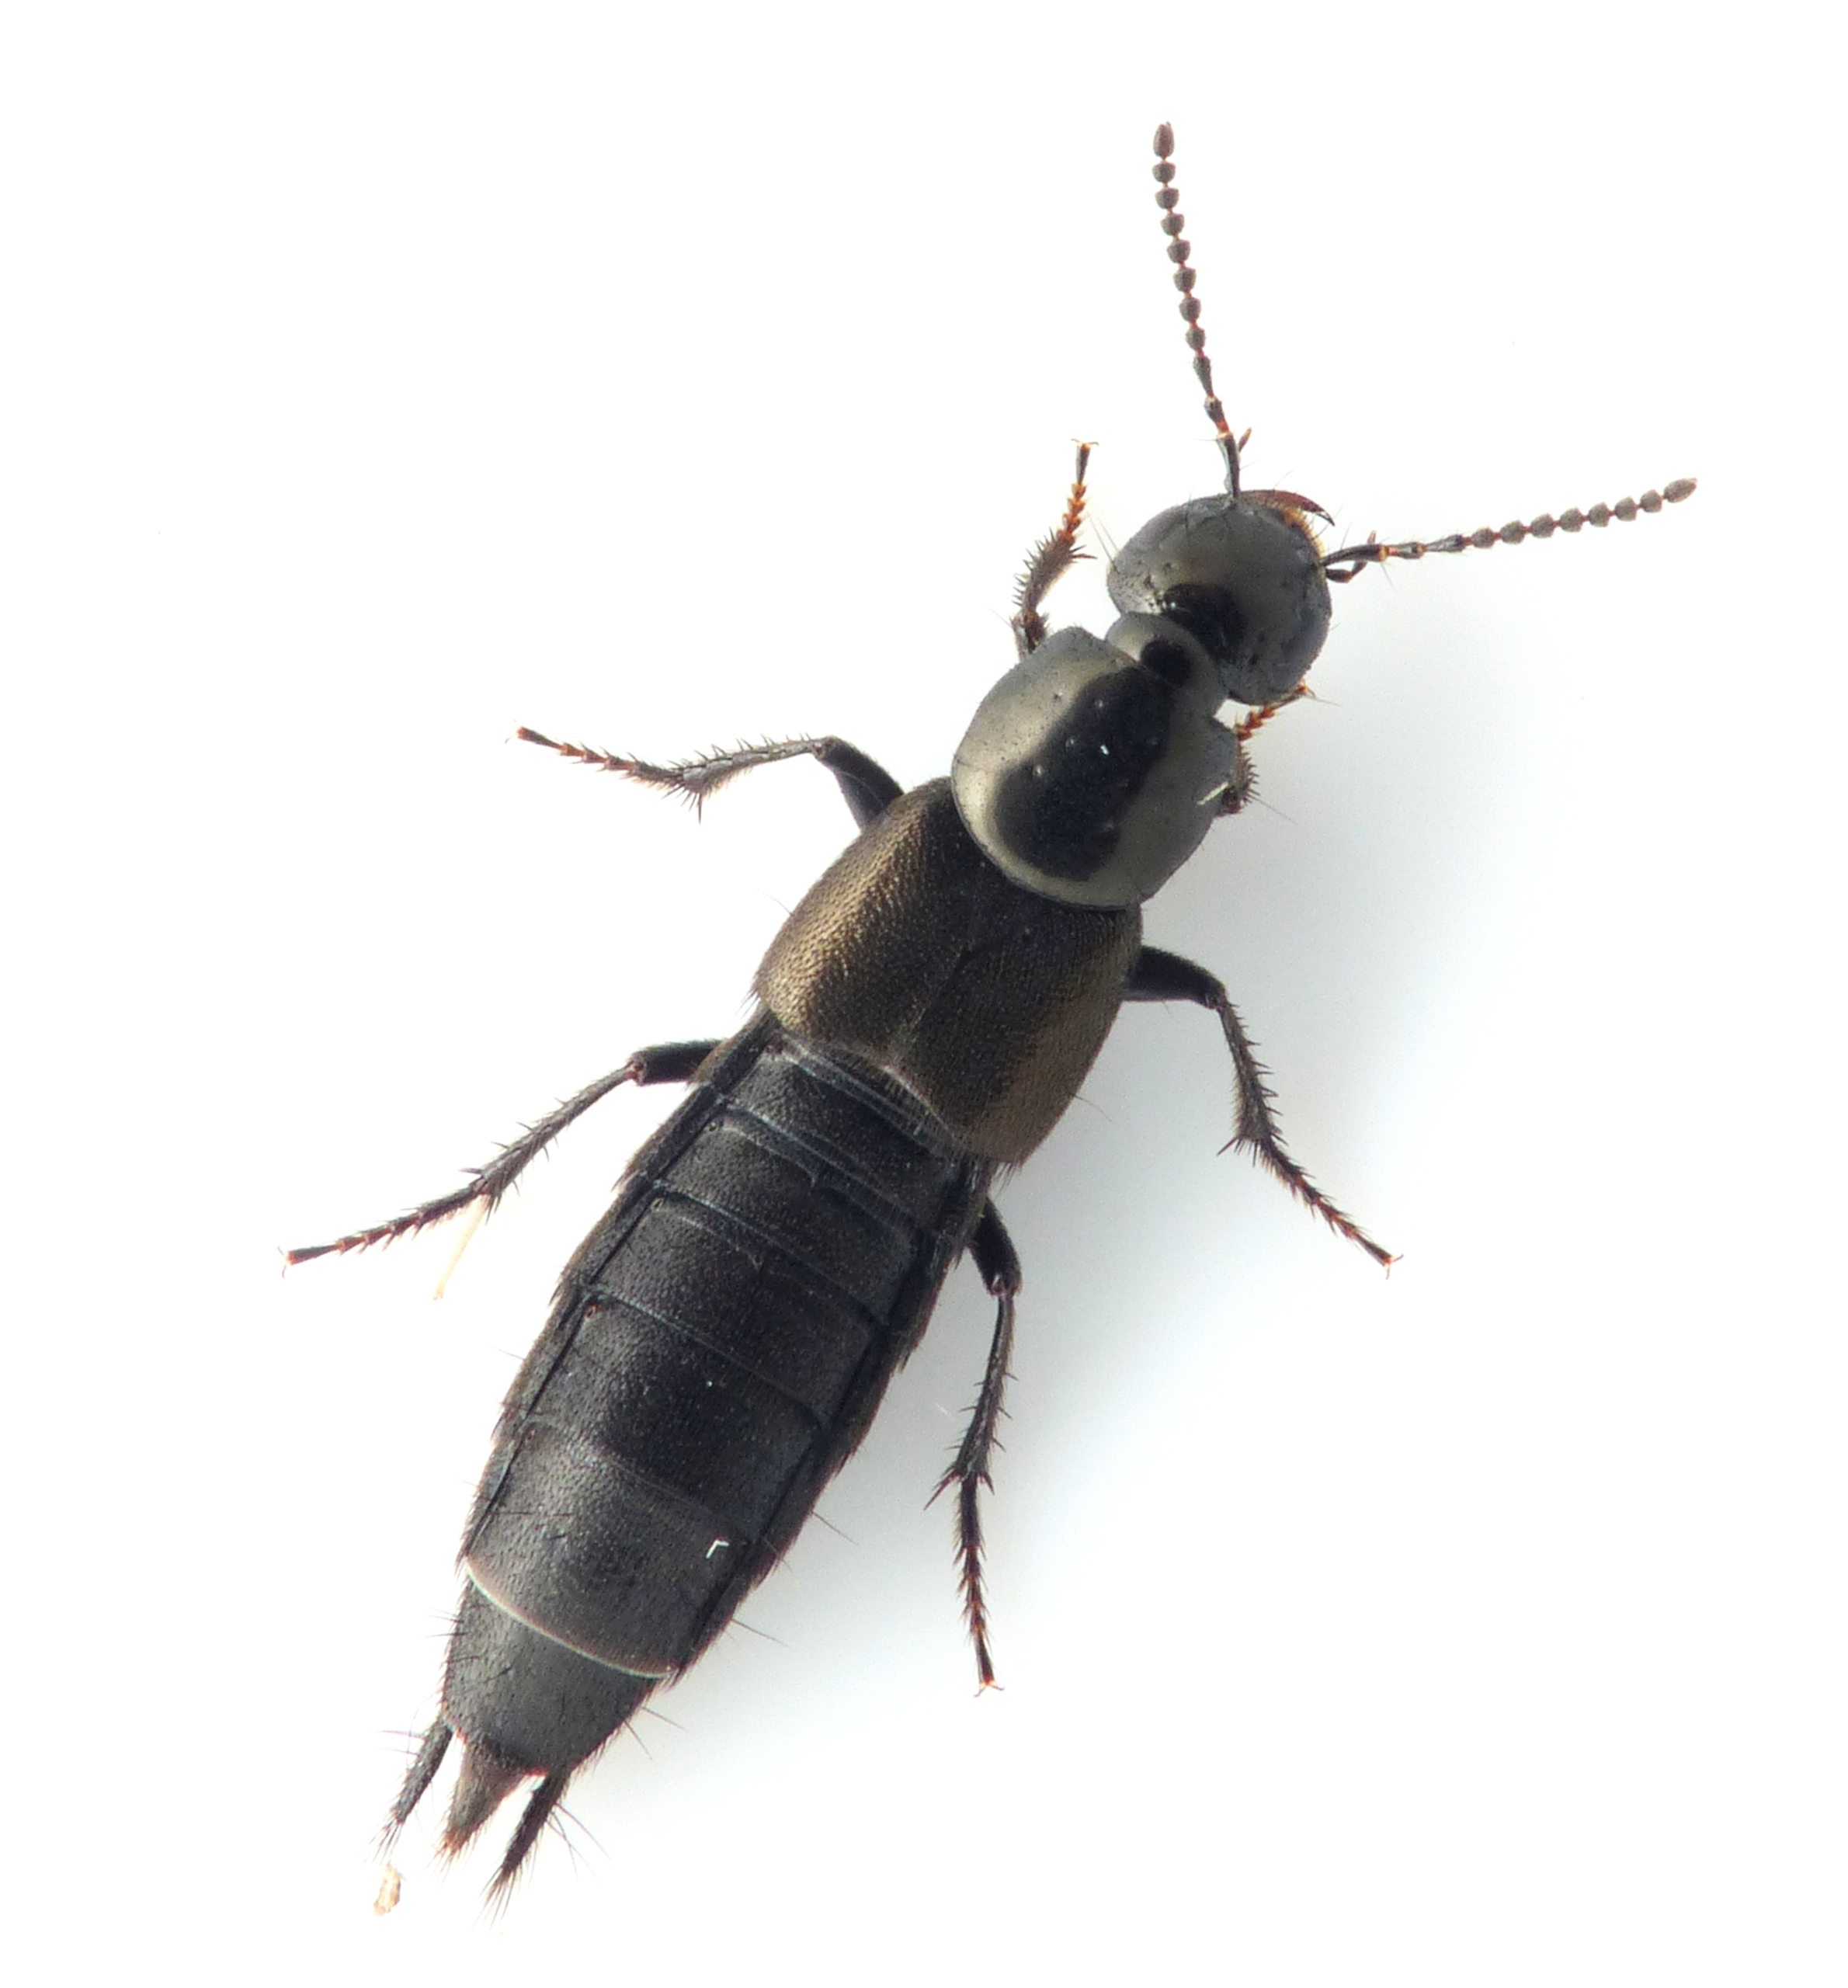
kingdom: Animalia
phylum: Arthropoda
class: Insecta
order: Coleoptera
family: Staphylinidae
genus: Philonthus
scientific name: Philonthus politus
